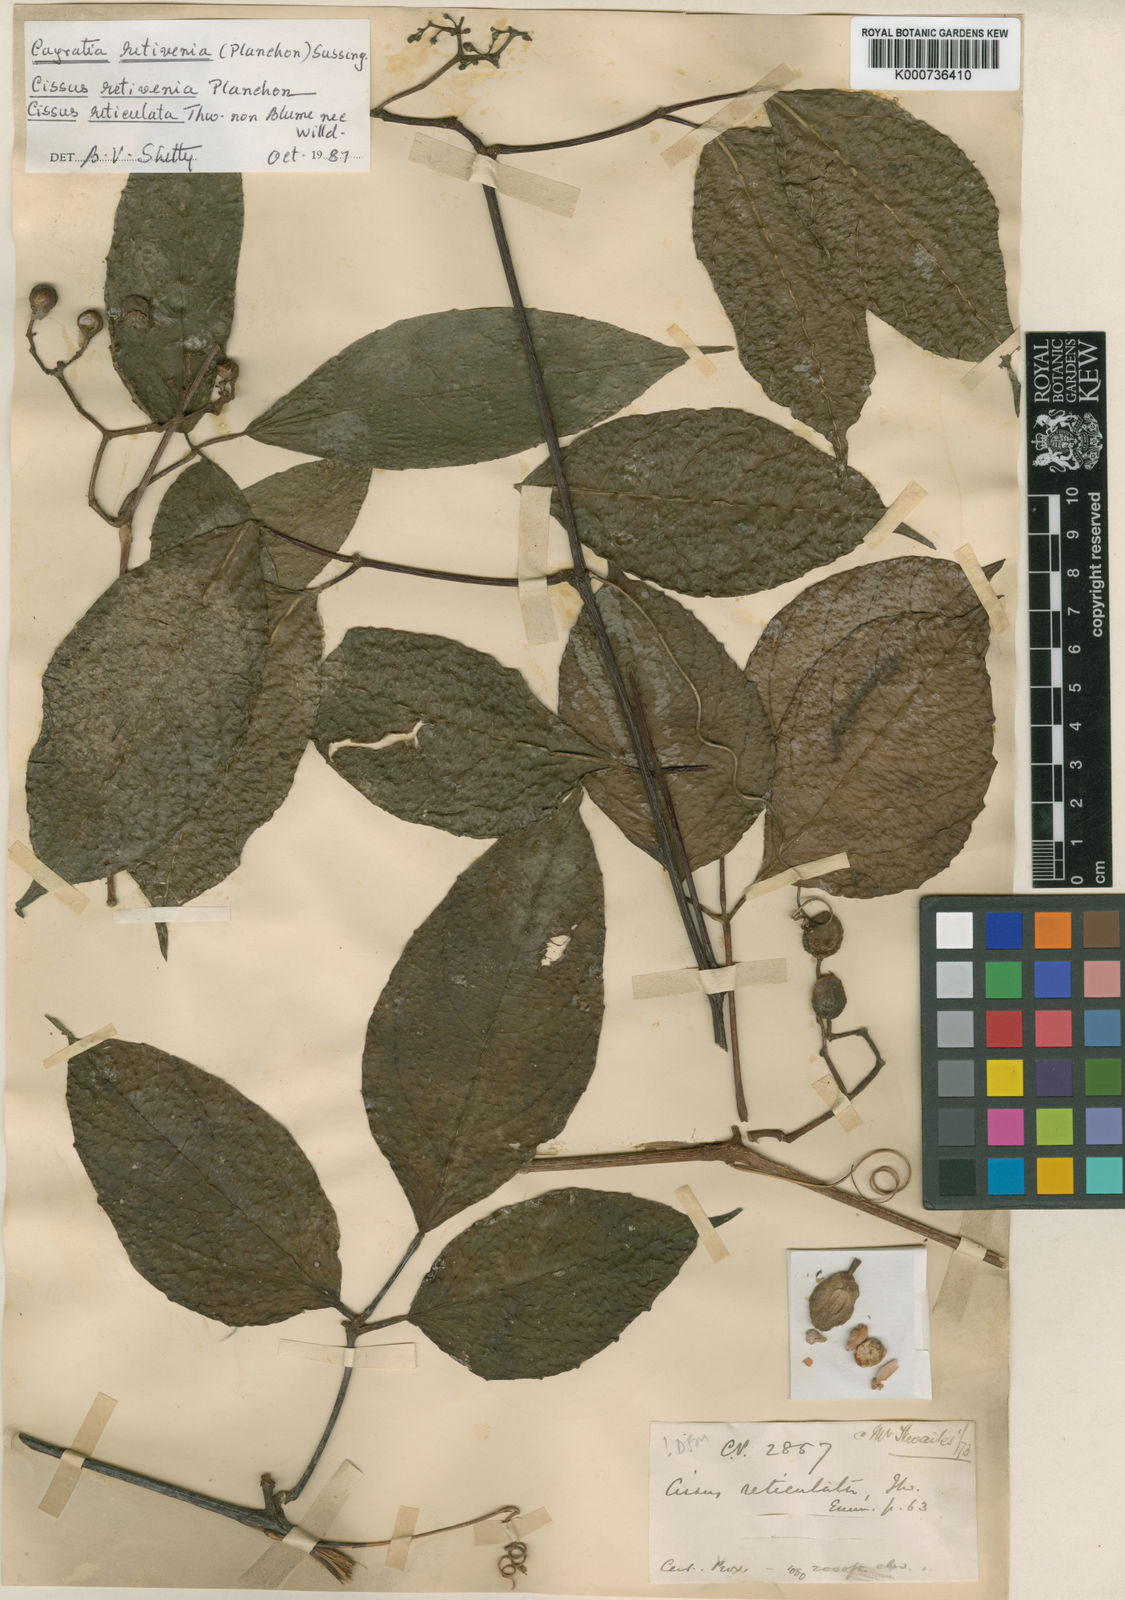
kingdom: Plantae
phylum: Tracheophyta
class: Magnoliopsida
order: Vitales
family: Vitaceae
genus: Cayratia
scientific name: Cayratia reticulata
